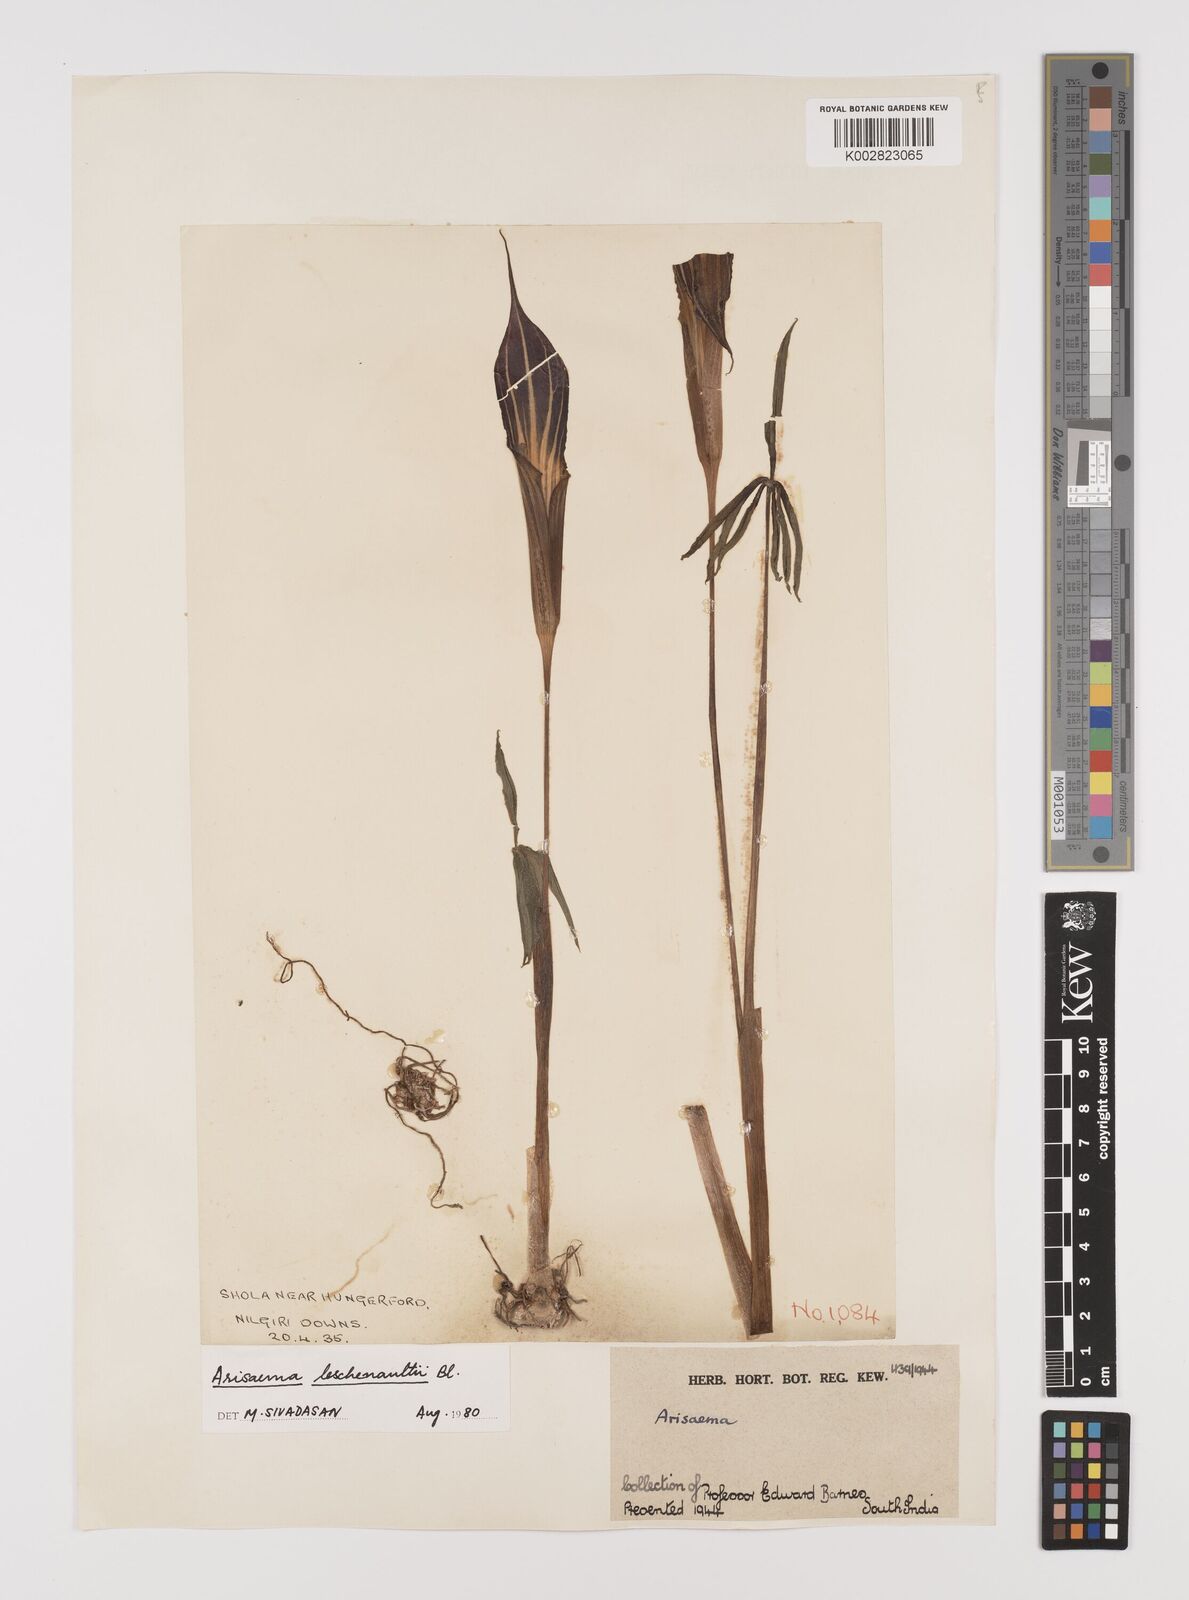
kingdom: Plantae
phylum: Tracheophyta
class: Liliopsida
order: Alismatales
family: Araceae
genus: Arisaema
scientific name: Arisaema leschenaultii
